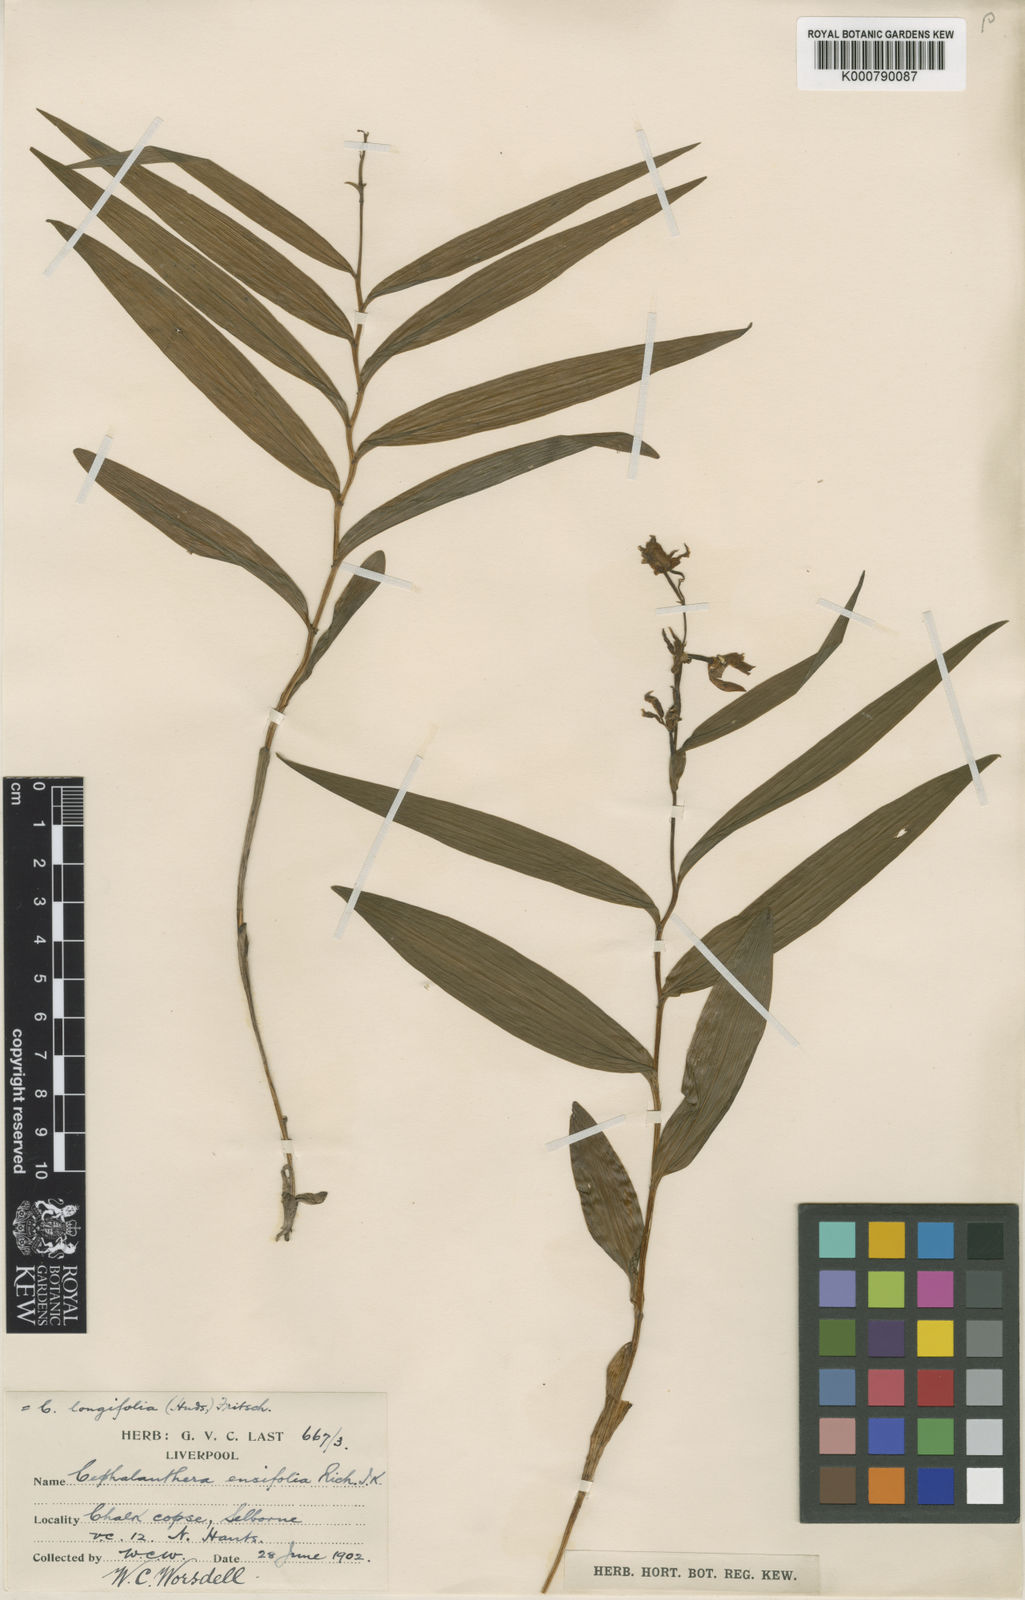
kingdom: Plantae
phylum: Tracheophyta
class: Liliopsida
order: Asparagales
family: Orchidaceae
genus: Cephalanthera
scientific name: Cephalanthera longifolia
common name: Narrow-leaved helleborine
